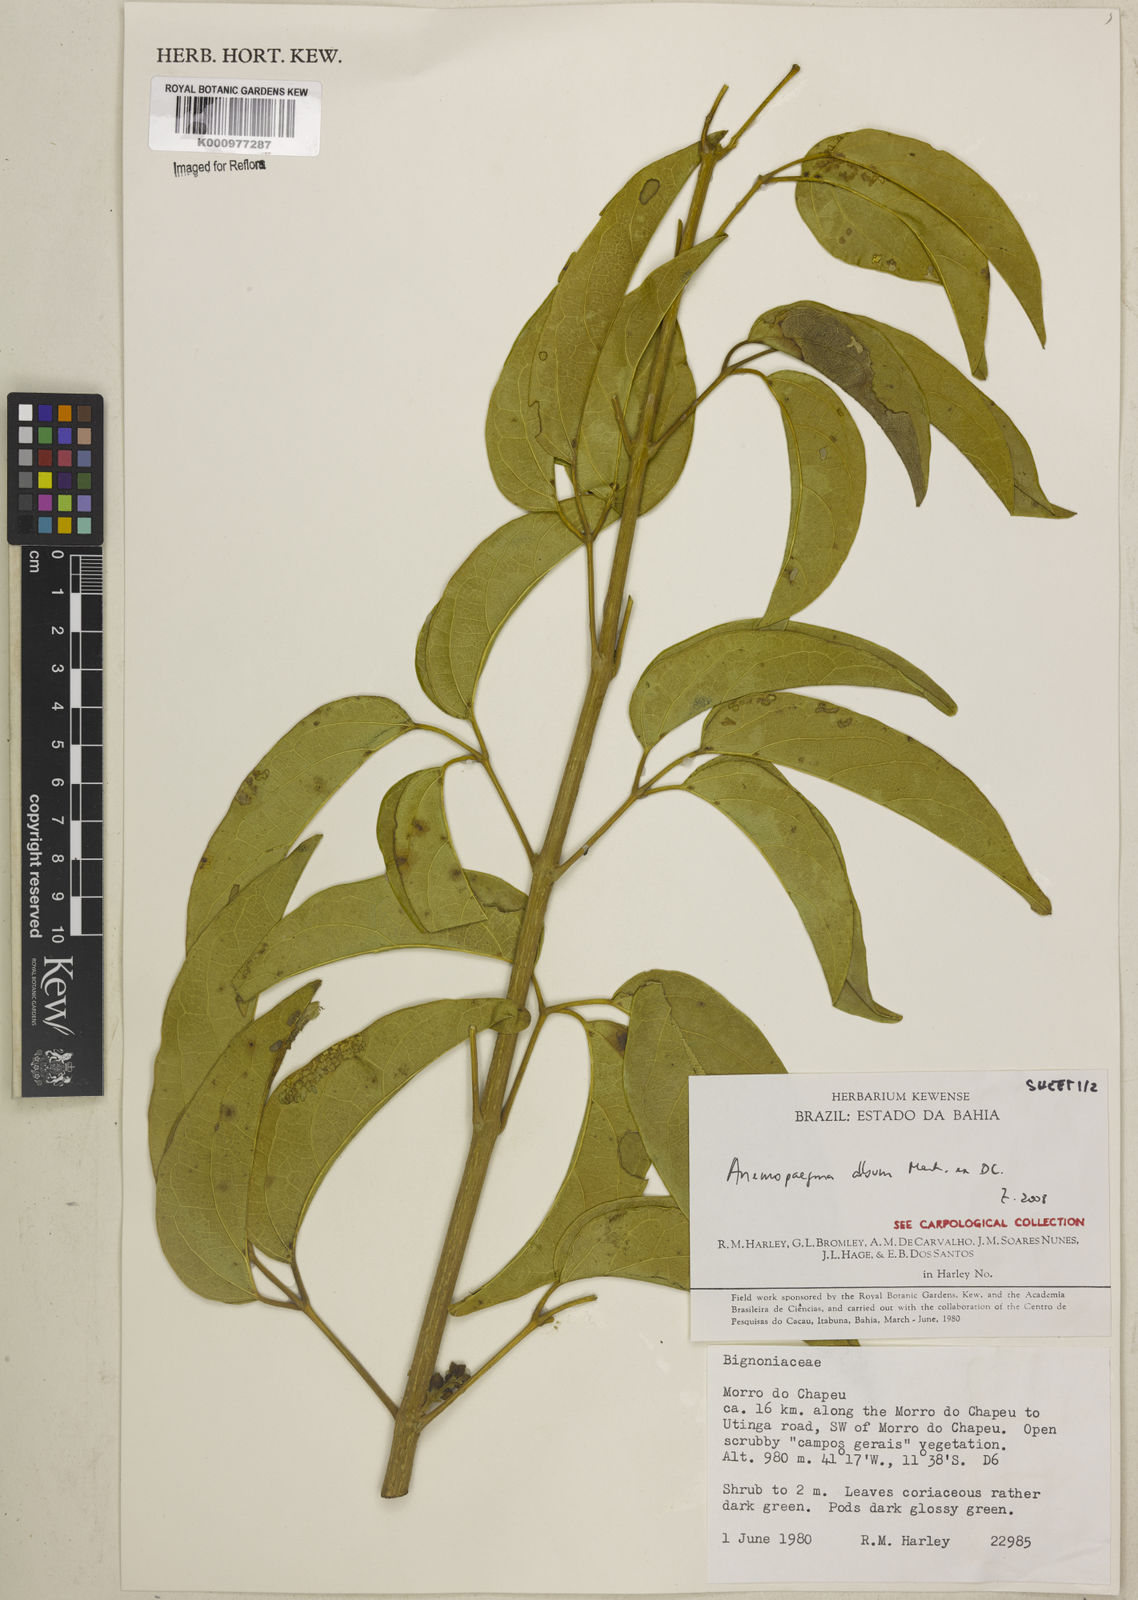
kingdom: Plantae
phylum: Tracheophyta
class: Magnoliopsida
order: Lamiales
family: Bignoniaceae
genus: Anemopaegma
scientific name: Anemopaegma album
